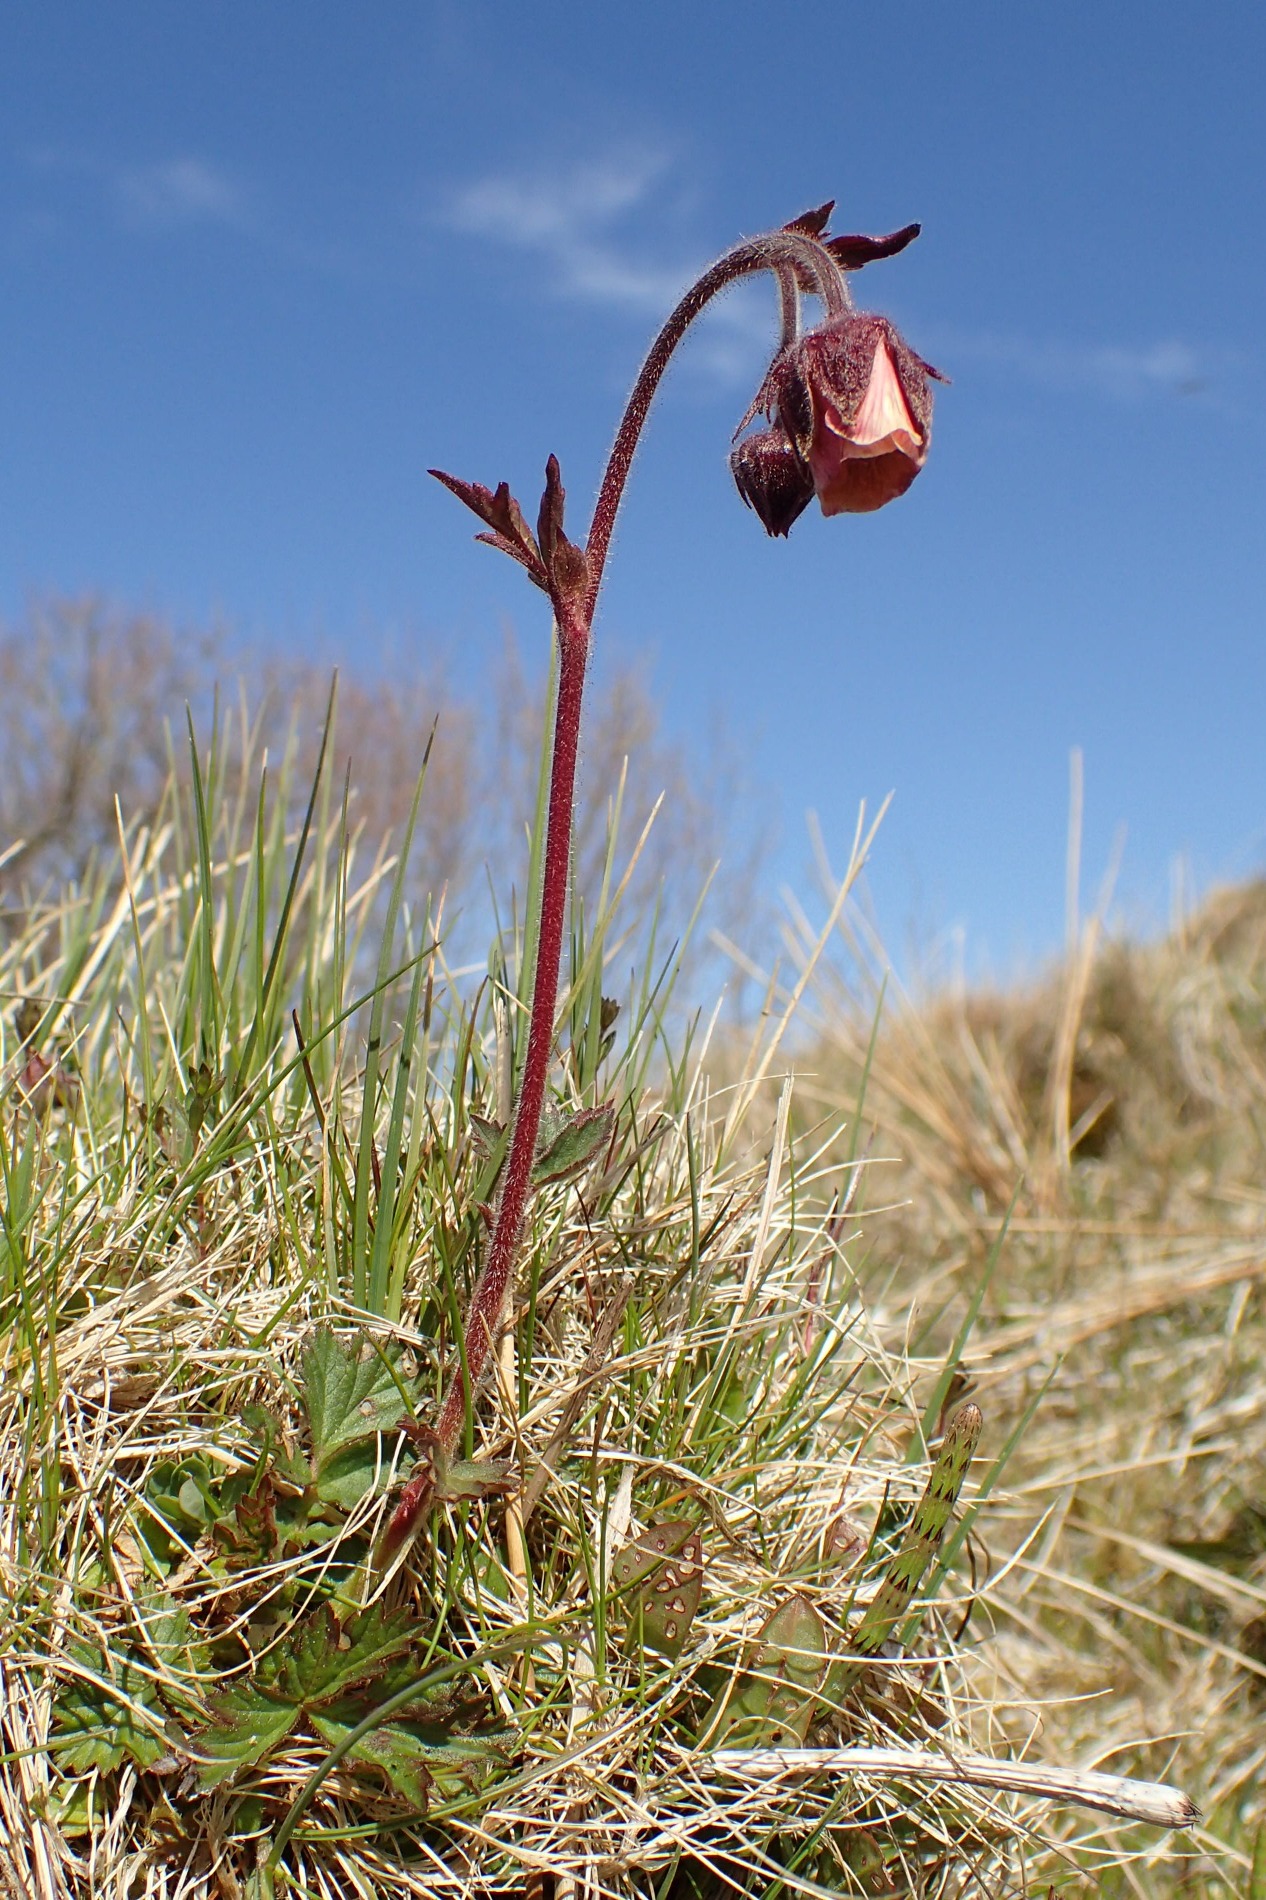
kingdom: Plantae
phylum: Tracheophyta
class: Magnoliopsida
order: Rosales
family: Rosaceae
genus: Geum
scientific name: Geum rivale
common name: Eng-nellikerod
